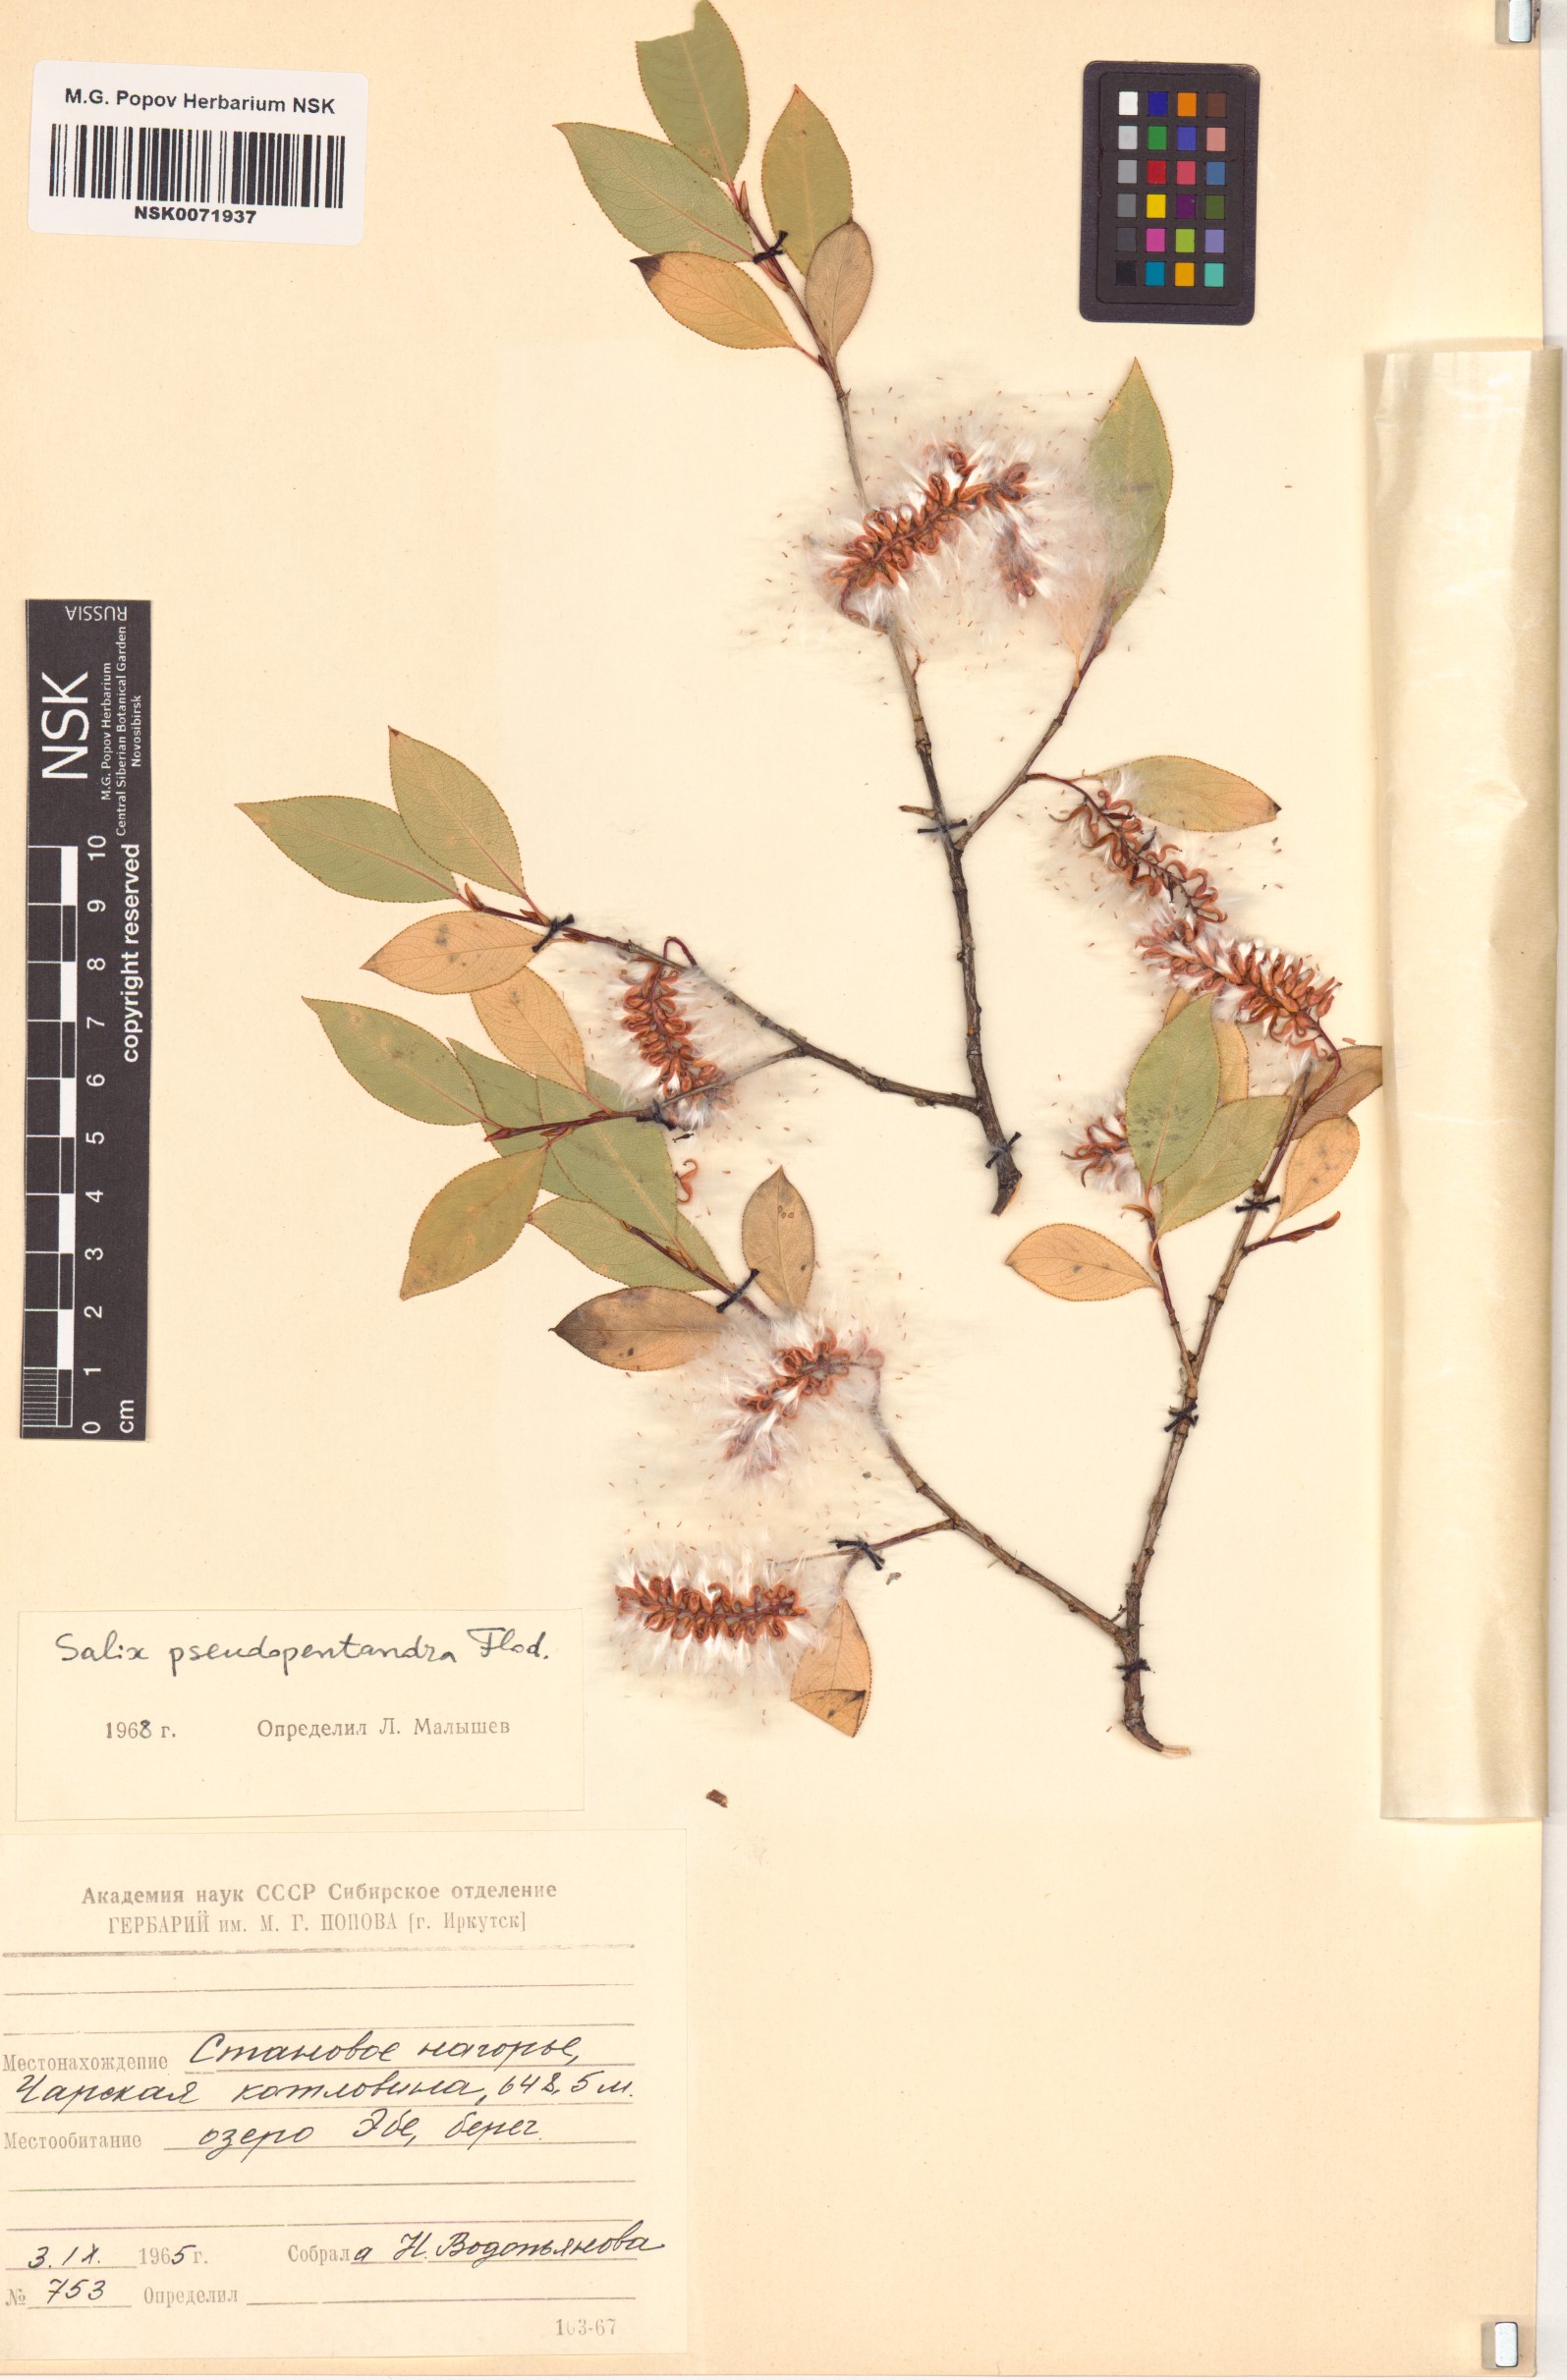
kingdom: Plantae
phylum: Tracheophyta
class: Magnoliopsida
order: Malpighiales
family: Salicaceae
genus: Salix
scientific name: Salix pseudopentandra
